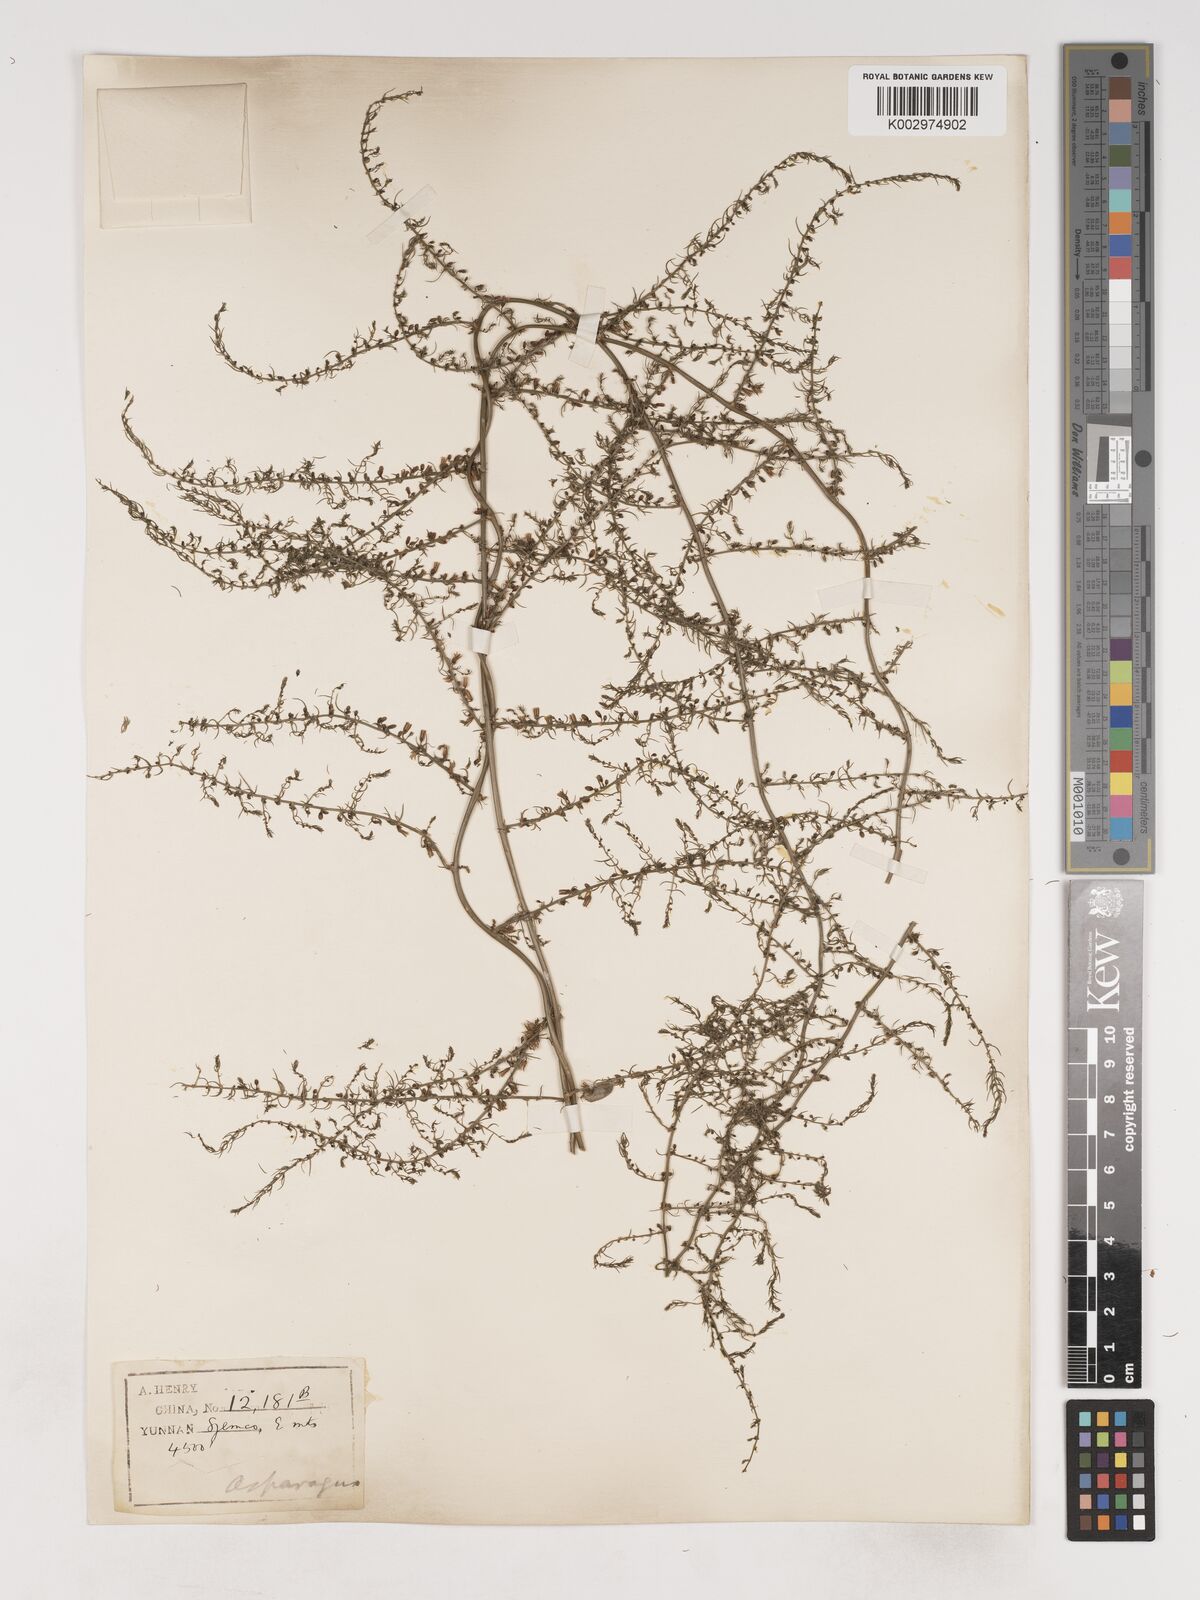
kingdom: Plantae
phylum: Tracheophyta
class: Liliopsida
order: Asparagales
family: Asparagaceae
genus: Asparagus
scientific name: Asparagus meioclados
